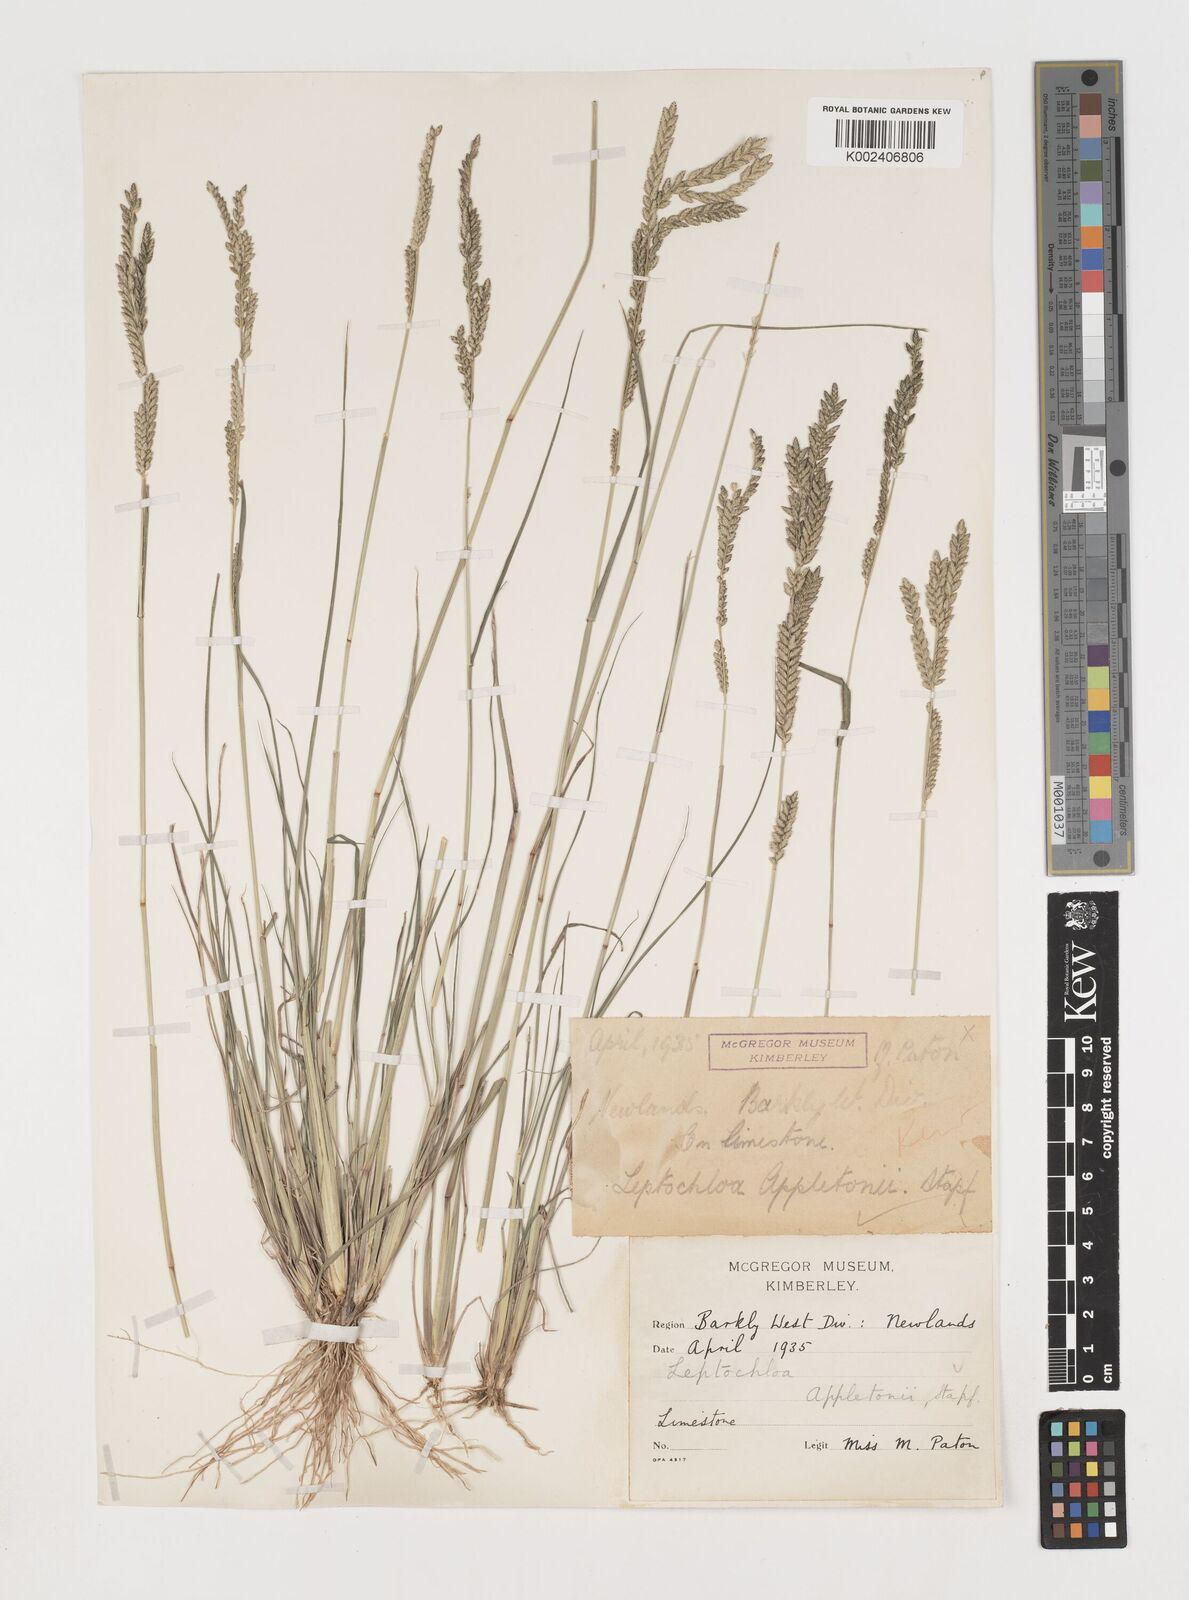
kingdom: Plantae
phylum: Tracheophyta
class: Liliopsida
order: Poales
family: Poaceae
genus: Disakisperma
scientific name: Disakisperma yemenicum
